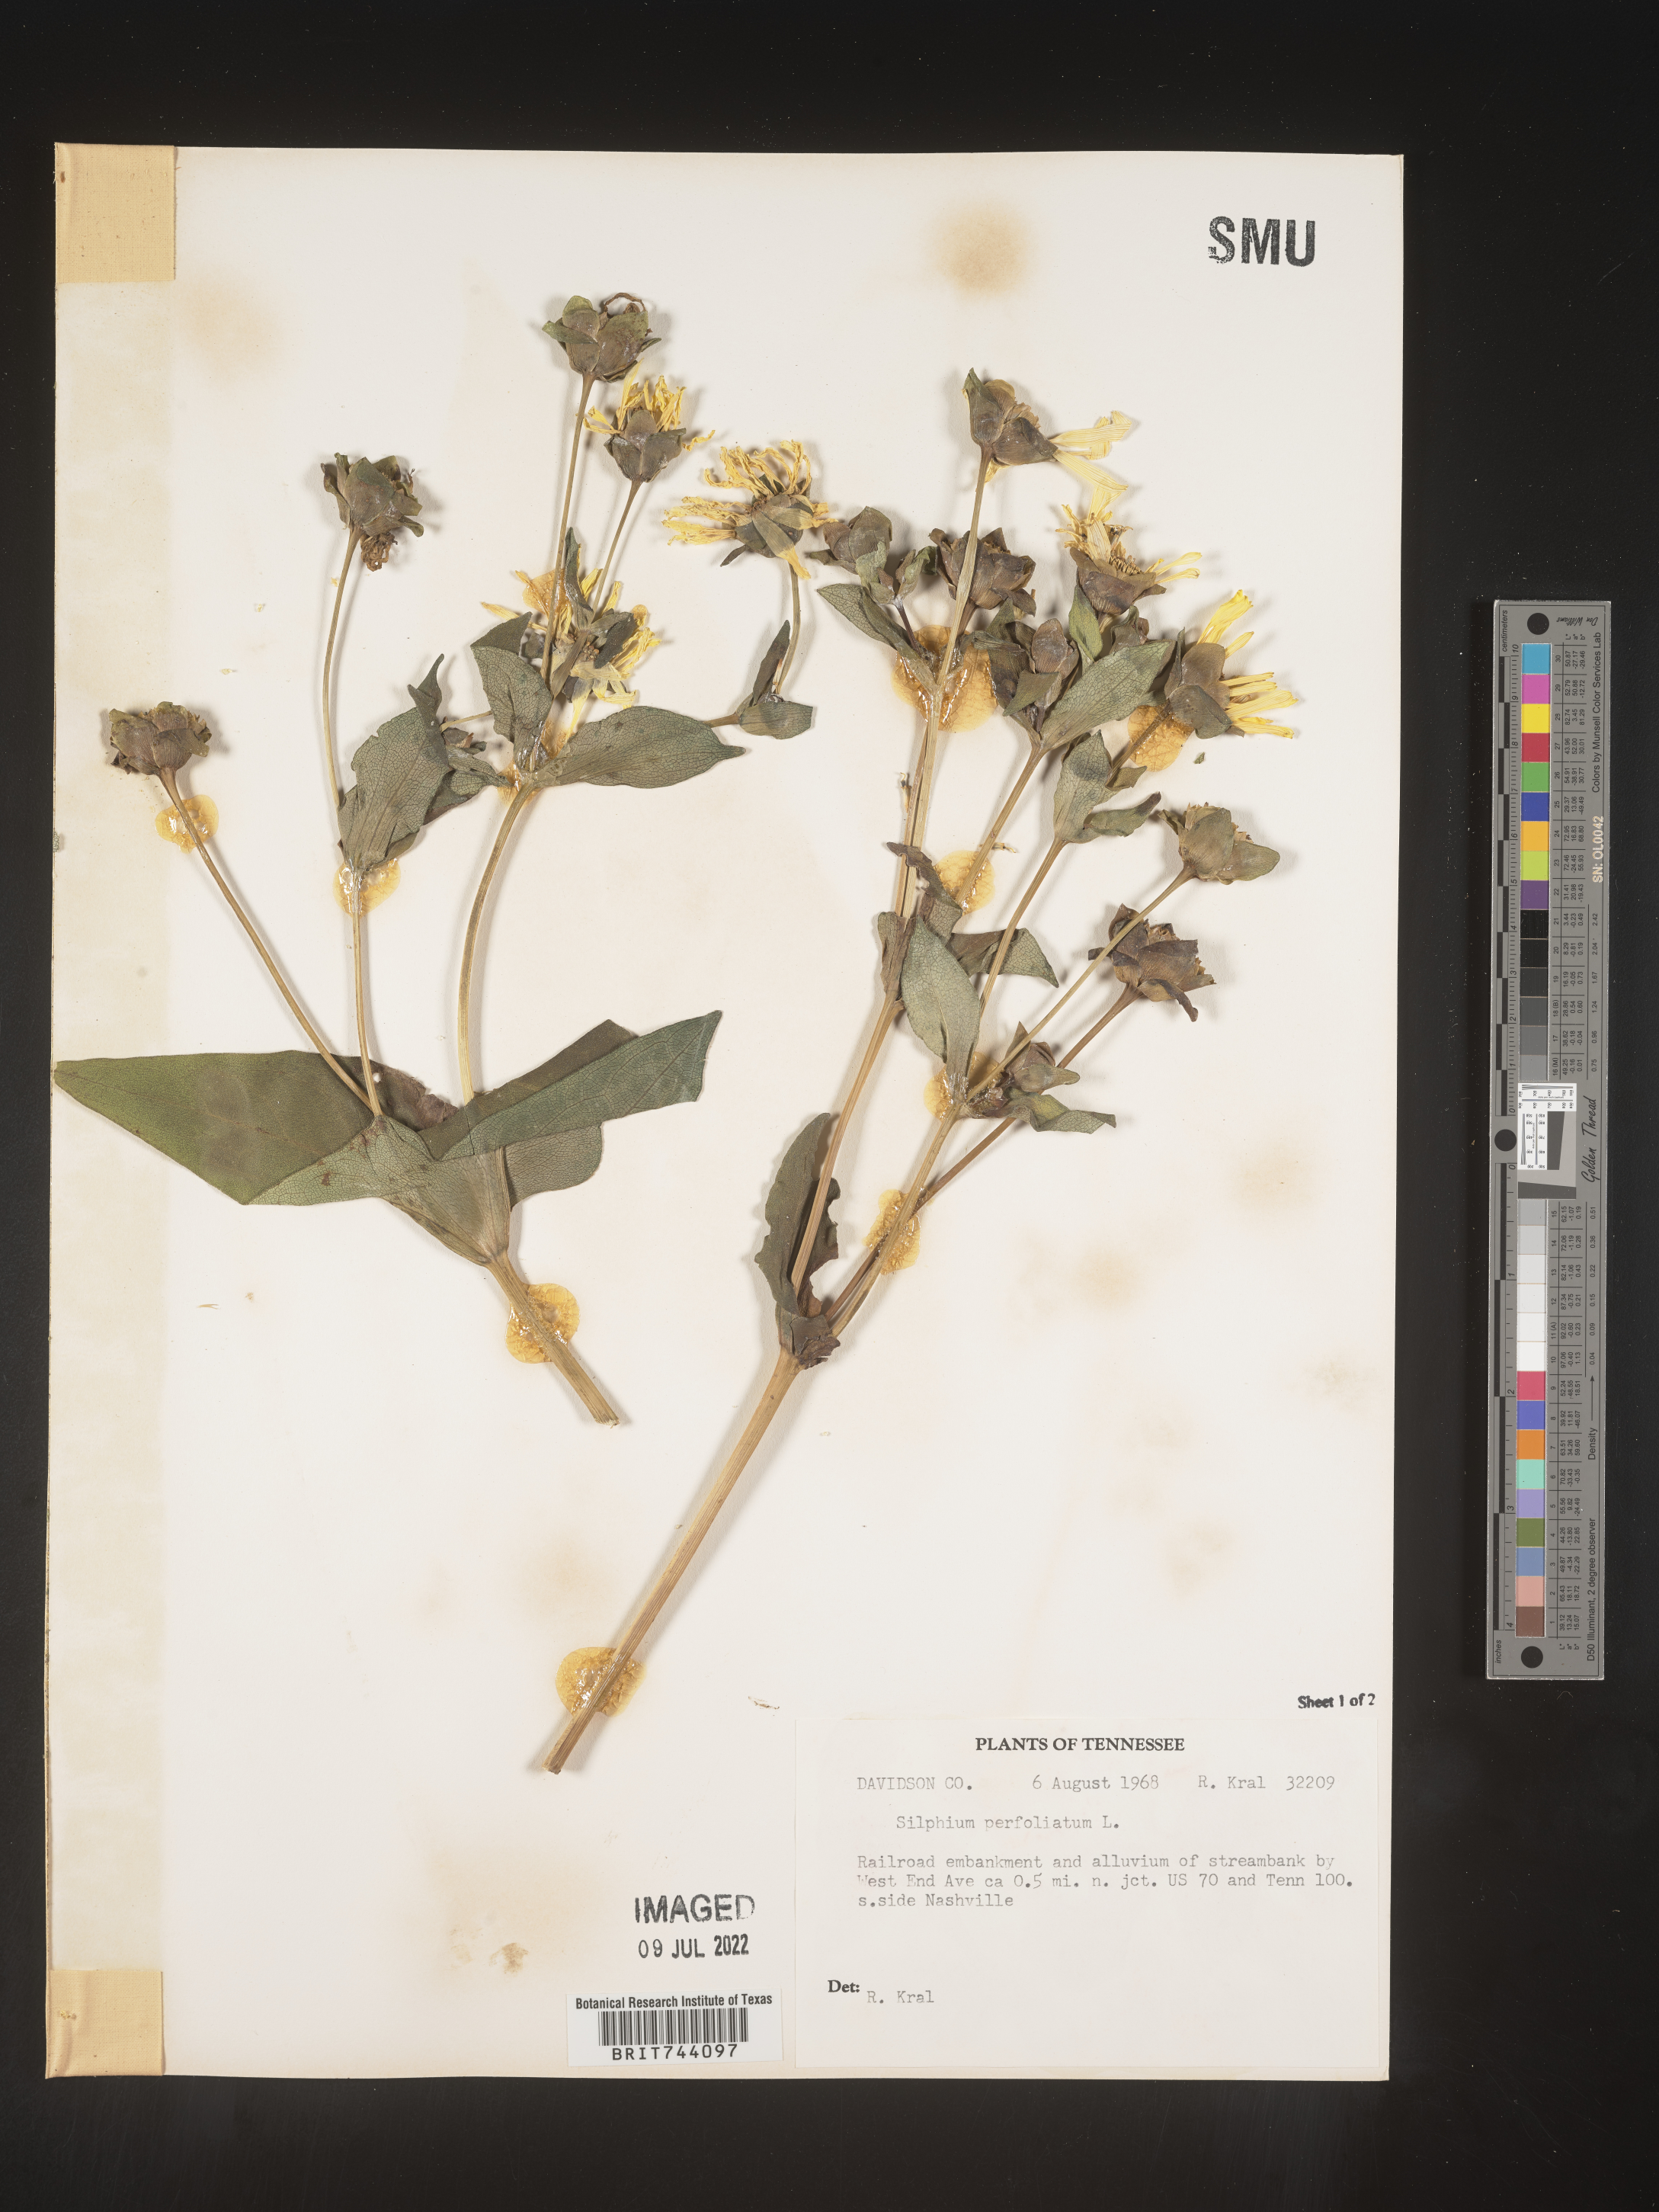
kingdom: Plantae
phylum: Tracheophyta
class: Magnoliopsida
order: Asterales
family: Asteraceae
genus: Silphium
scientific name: Silphium perfoliatum
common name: Cup-plant
